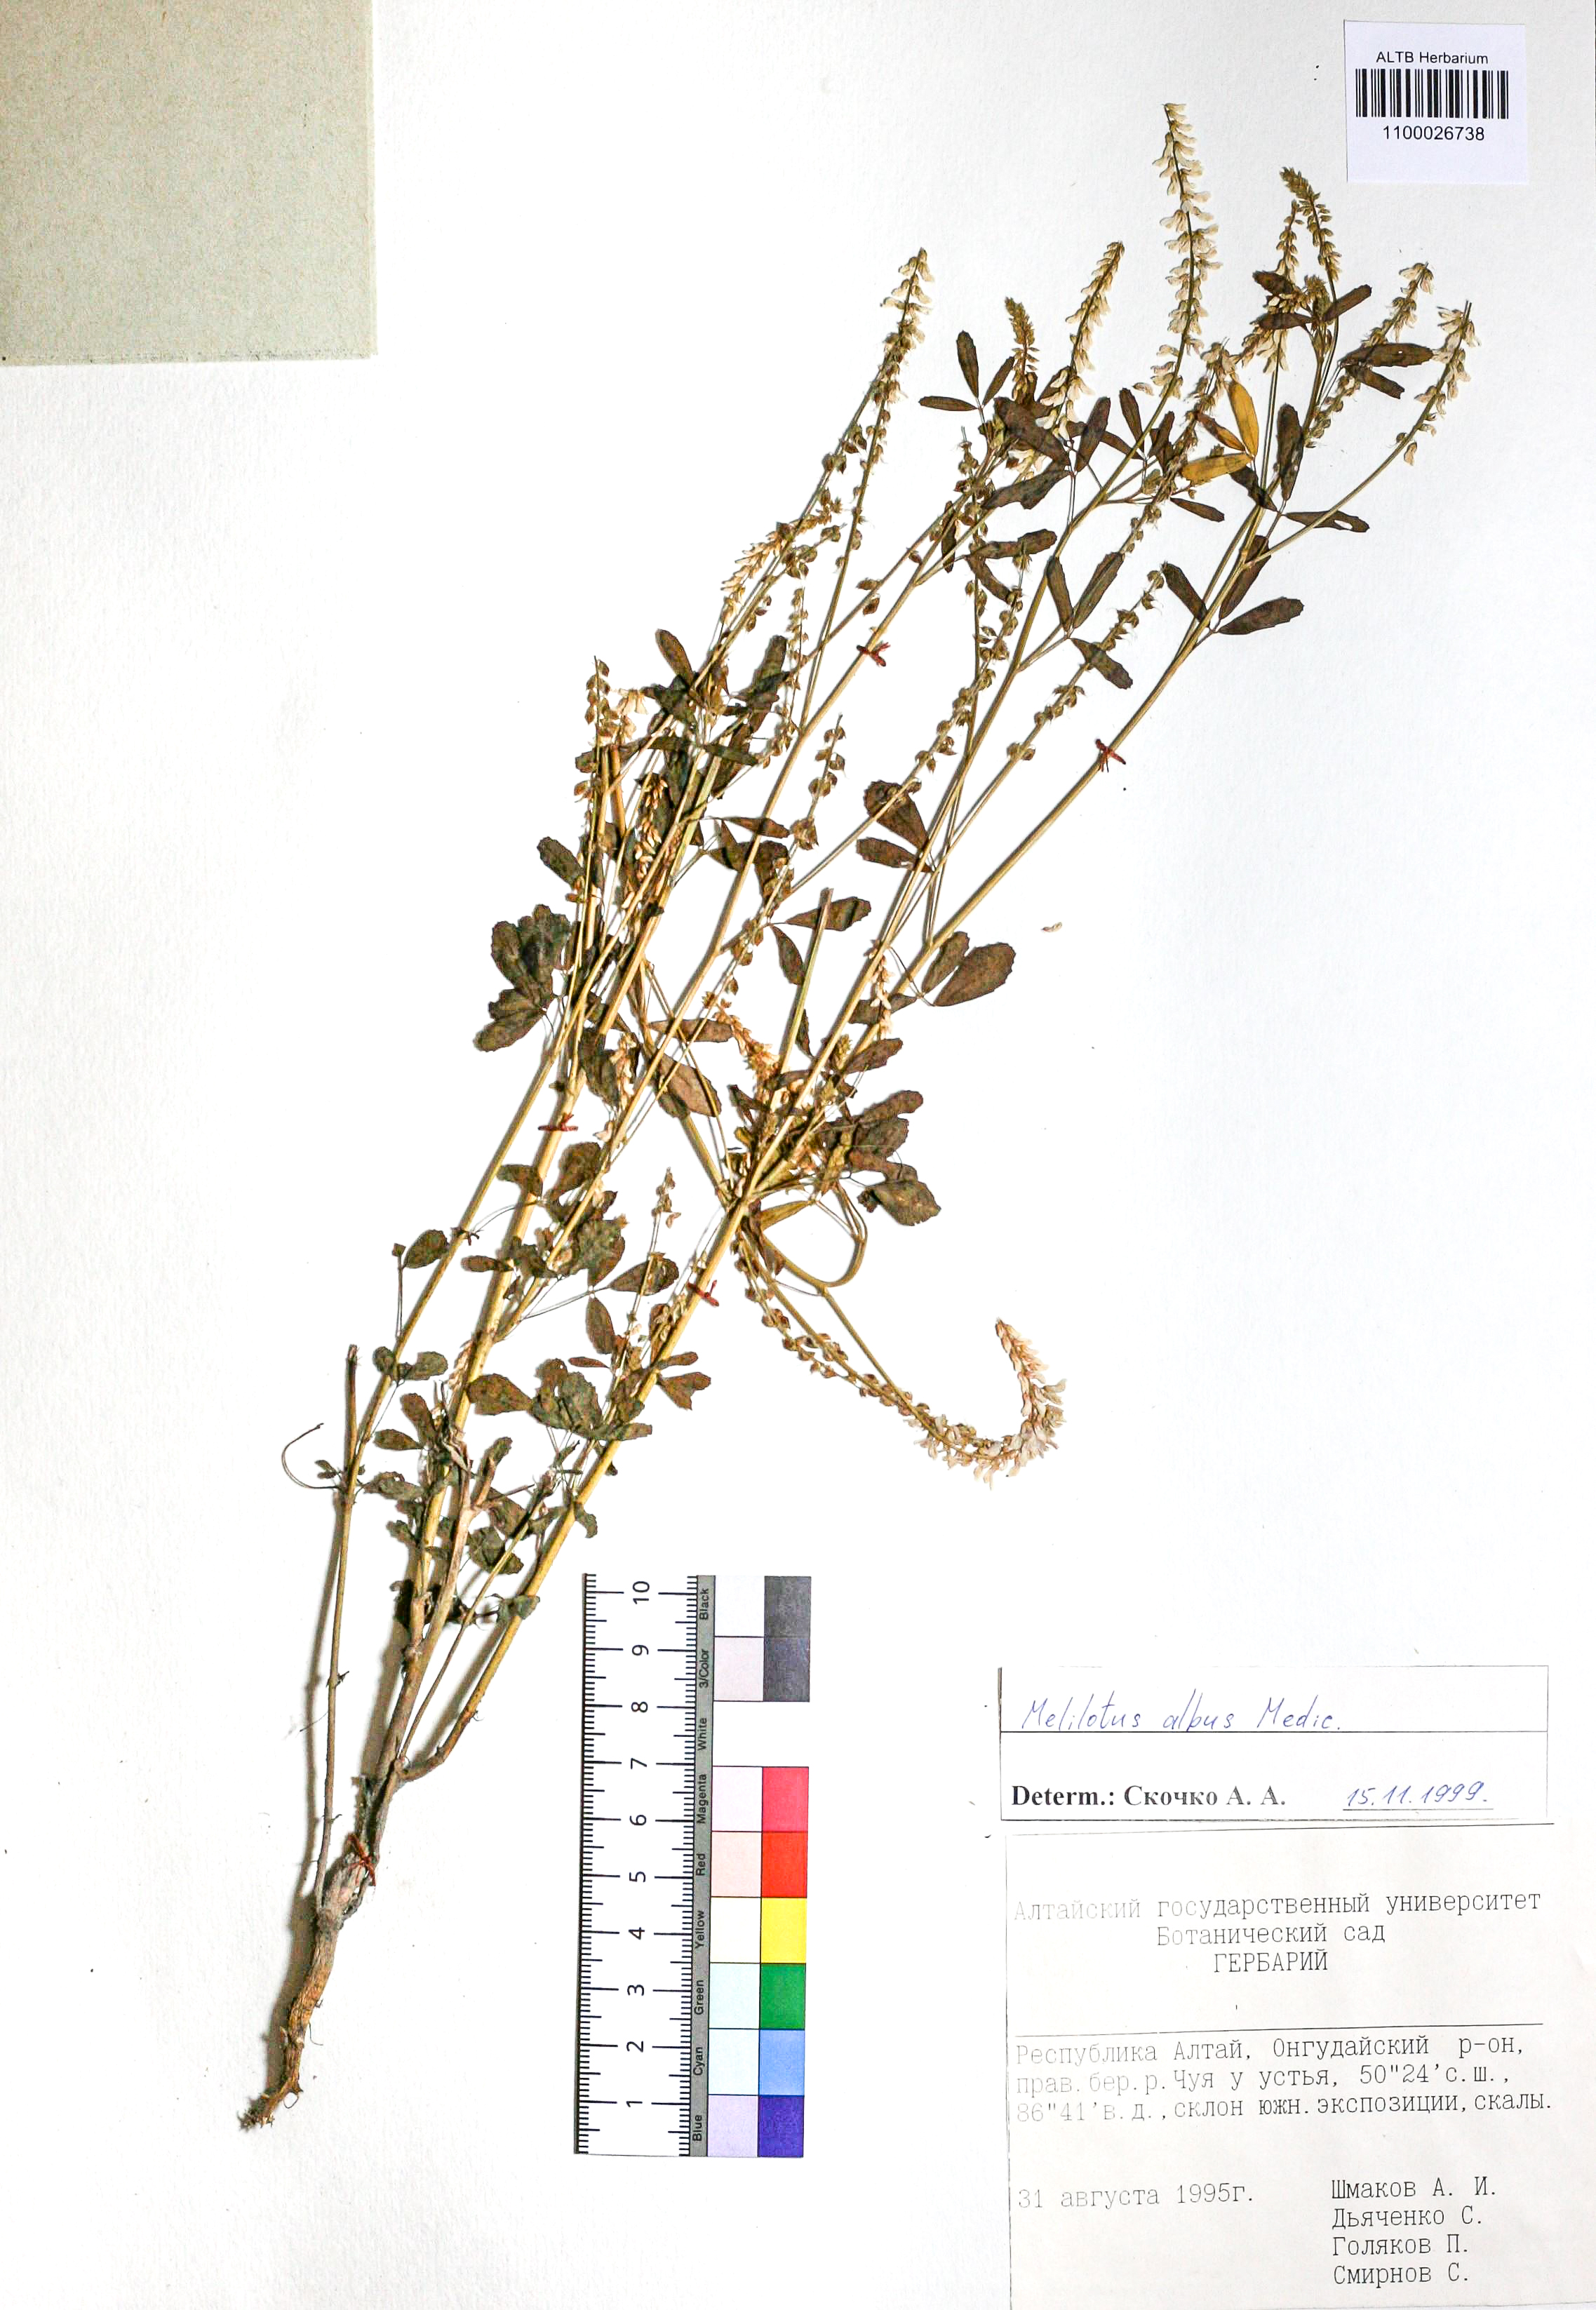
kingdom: Plantae
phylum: Tracheophyta
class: Magnoliopsida
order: Fabales
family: Fabaceae
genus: Melilotus
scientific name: Melilotus albus
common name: White melilot
